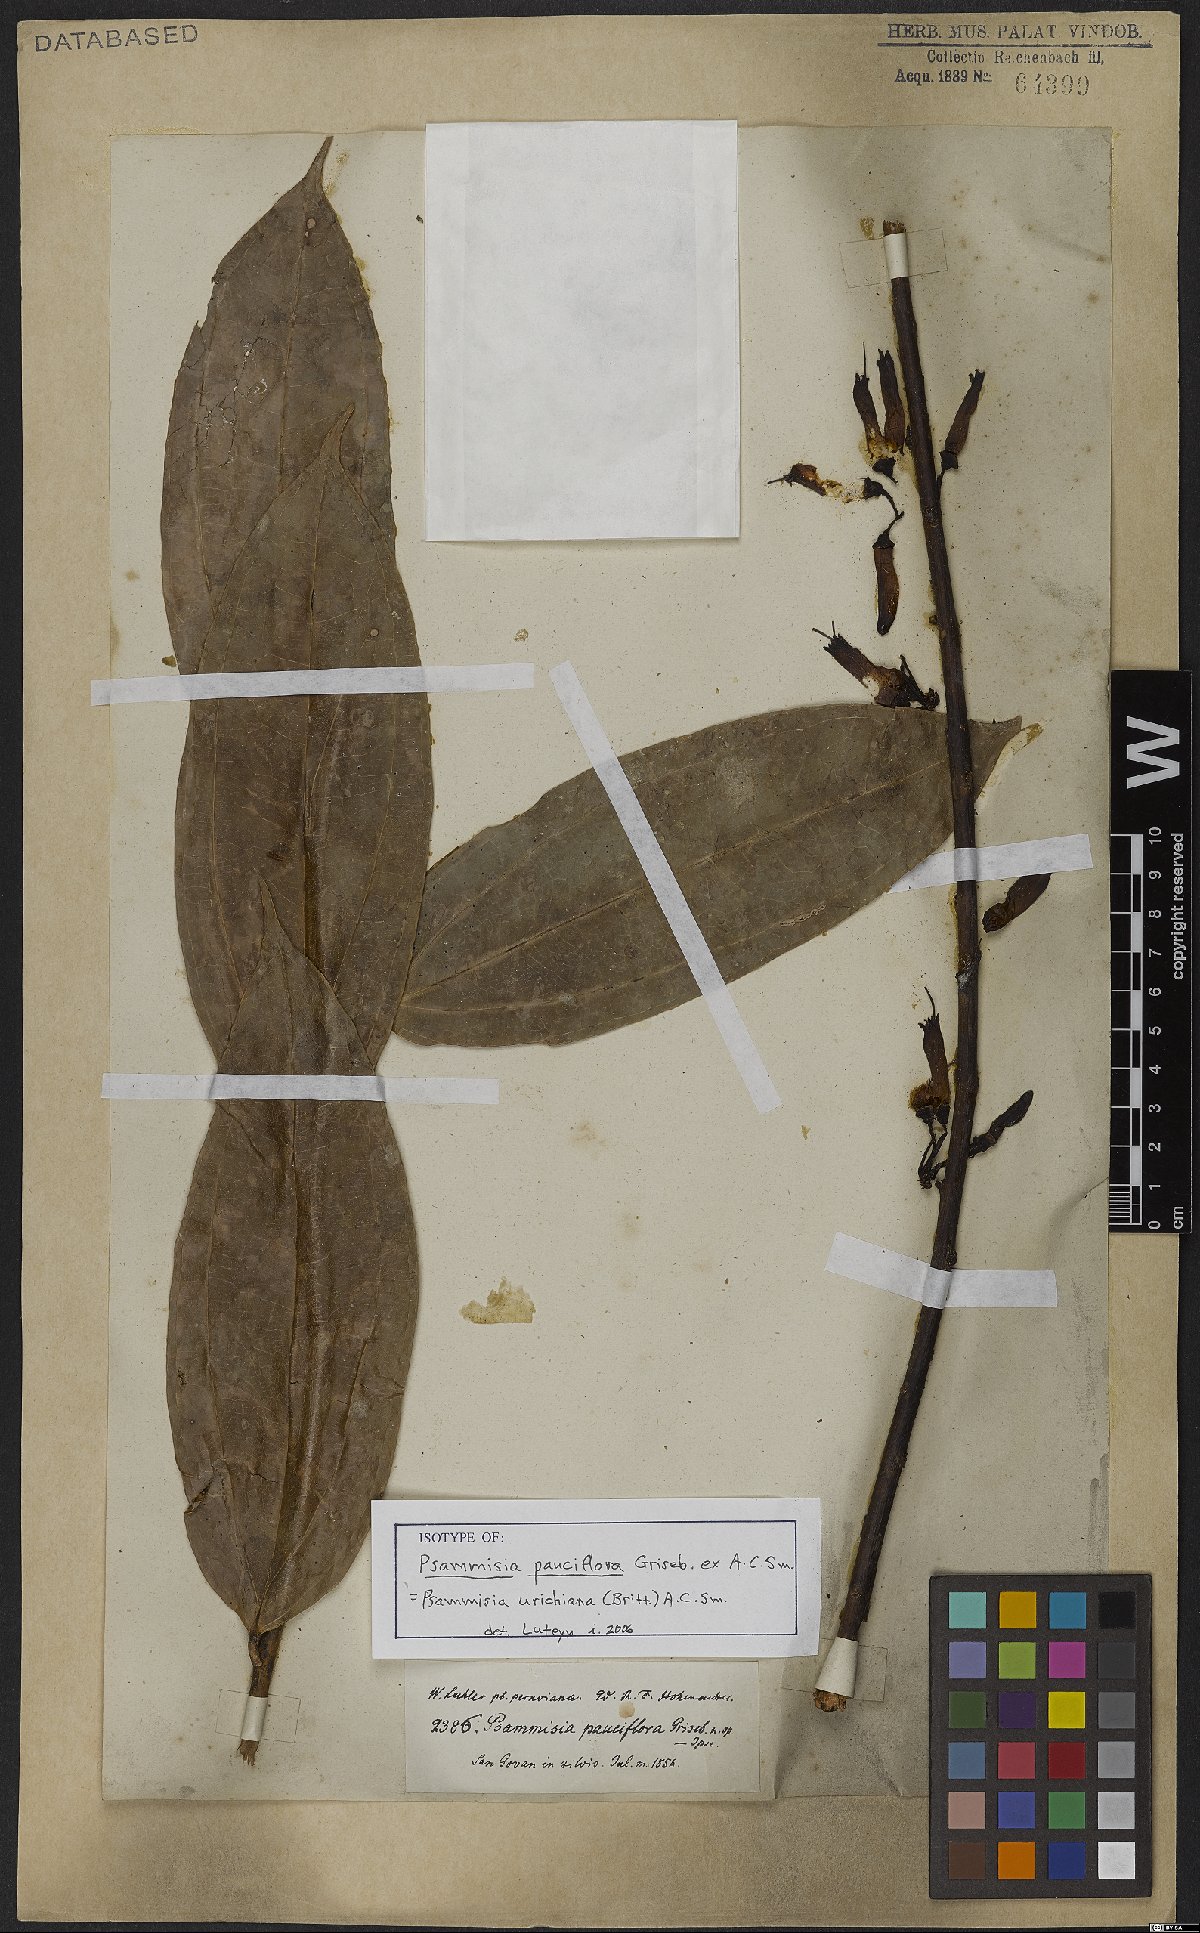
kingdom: Plantae
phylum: Tracheophyta
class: Magnoliopsida
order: Ericales
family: Ericaceae
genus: Psammisia
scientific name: Psammisia urichiana
